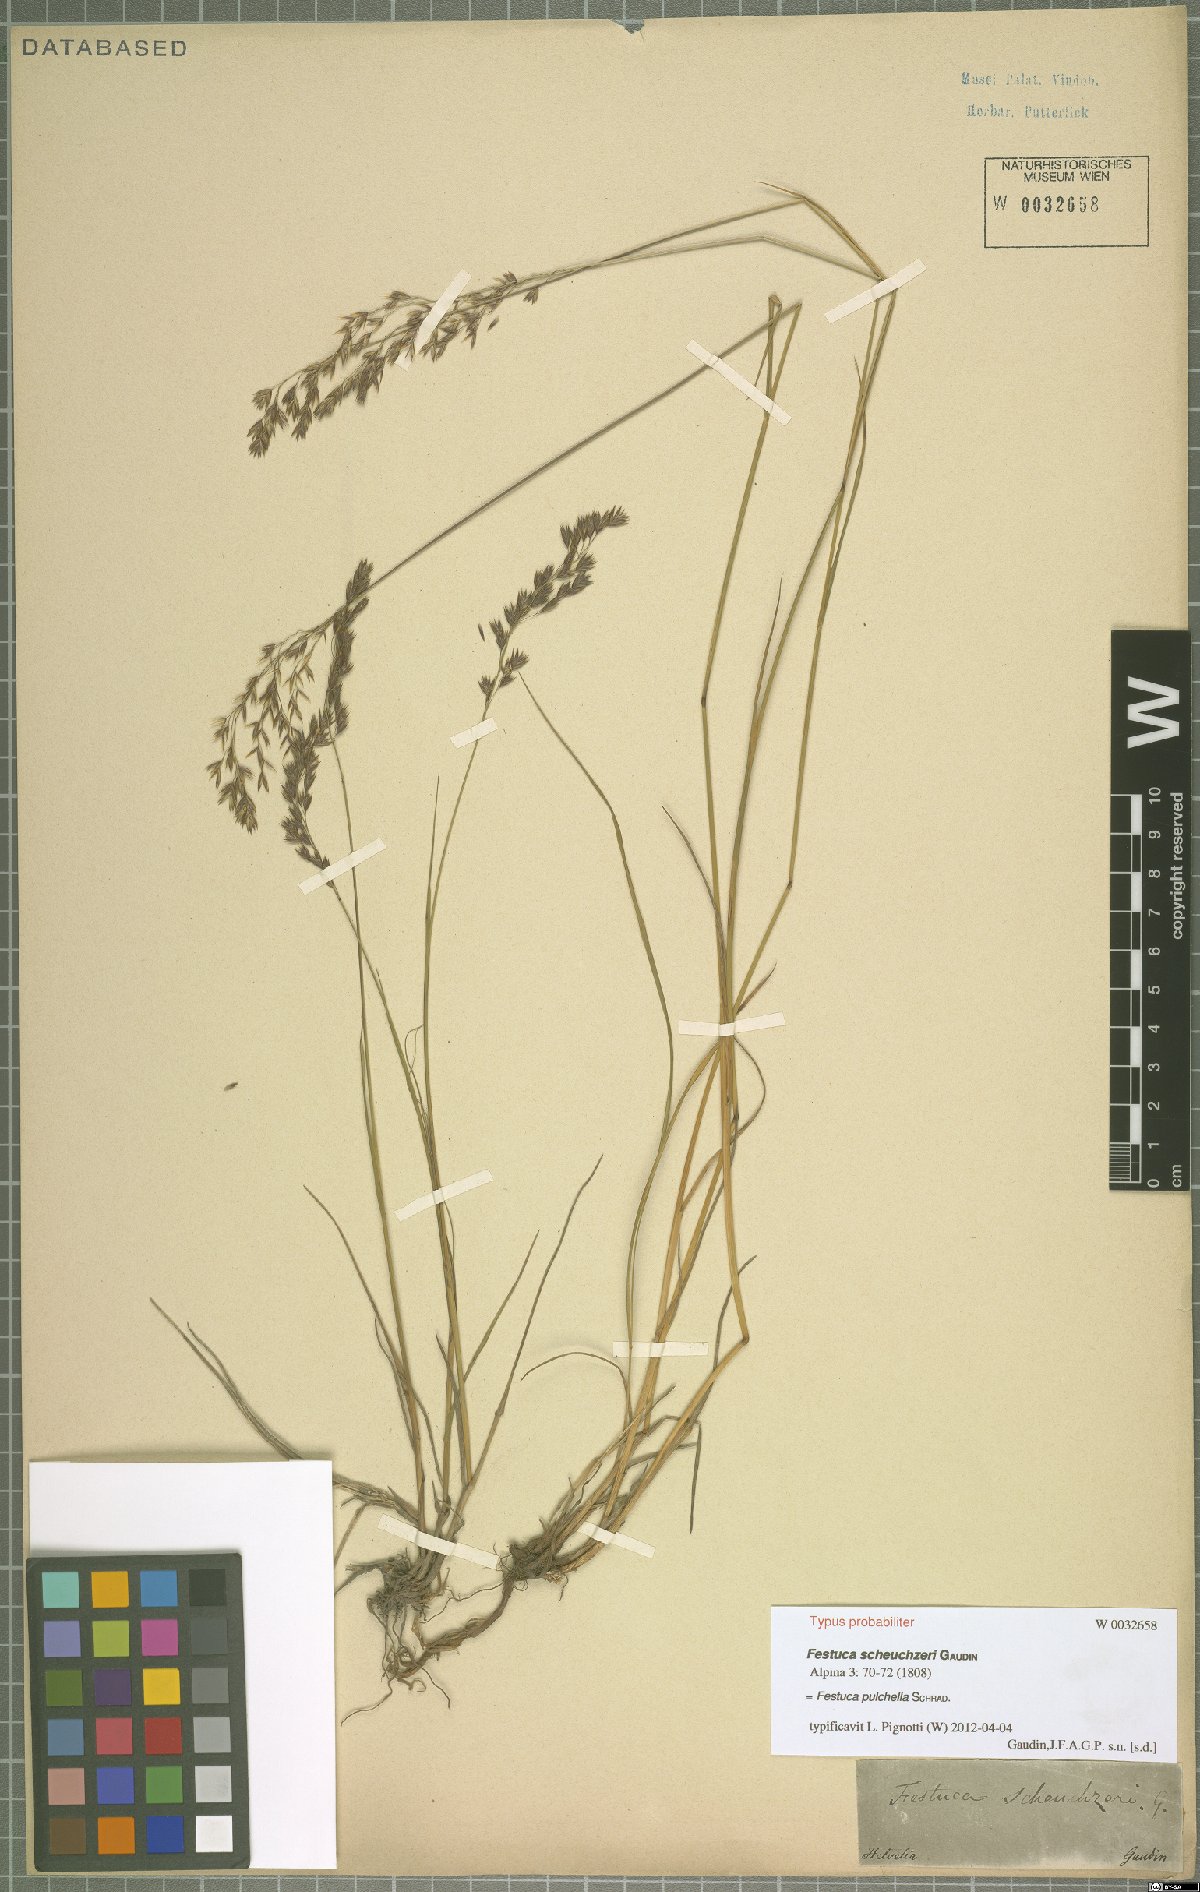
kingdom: Plantae
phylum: Tracheophyta
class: Liliopsida
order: Poales
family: Poaceae
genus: Festuca
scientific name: Festuca pulchella
